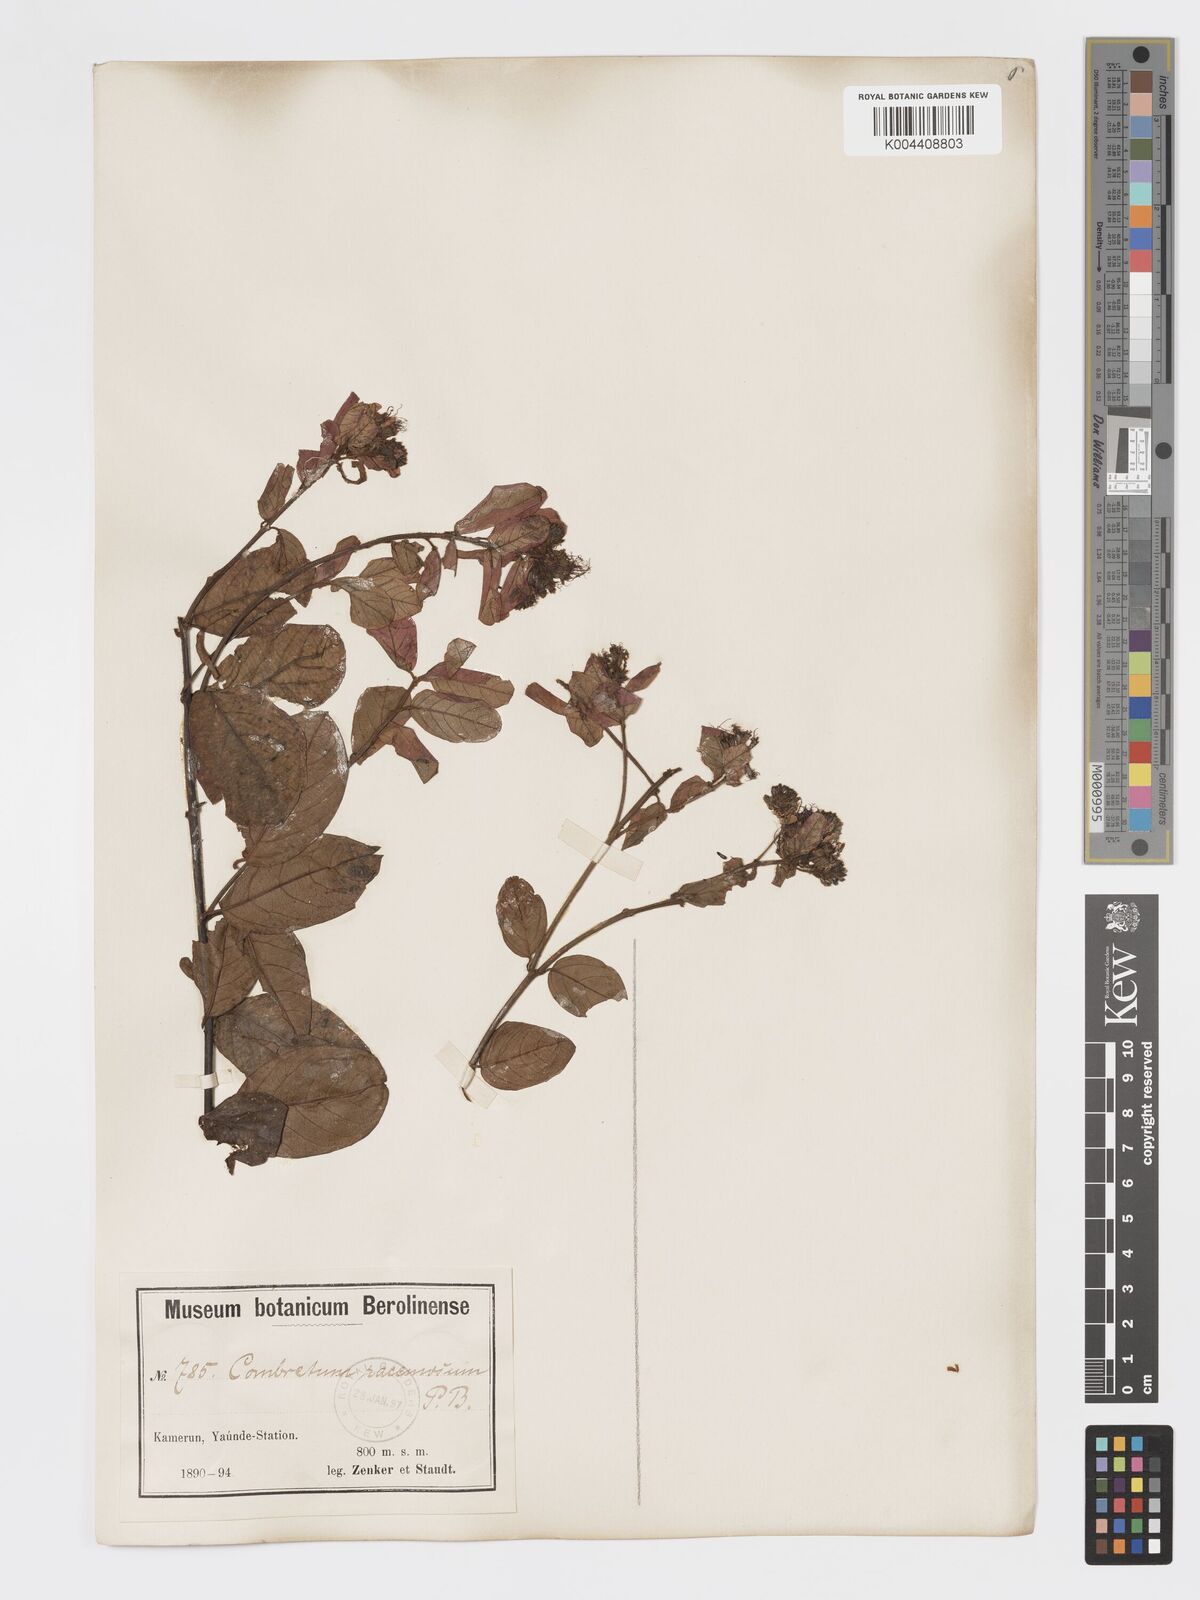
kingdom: Plantae
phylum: Tracheophyta
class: Magnoliopsida
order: Myrtales
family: Combretaceae
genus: Combretum
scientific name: Combretum racemosum
